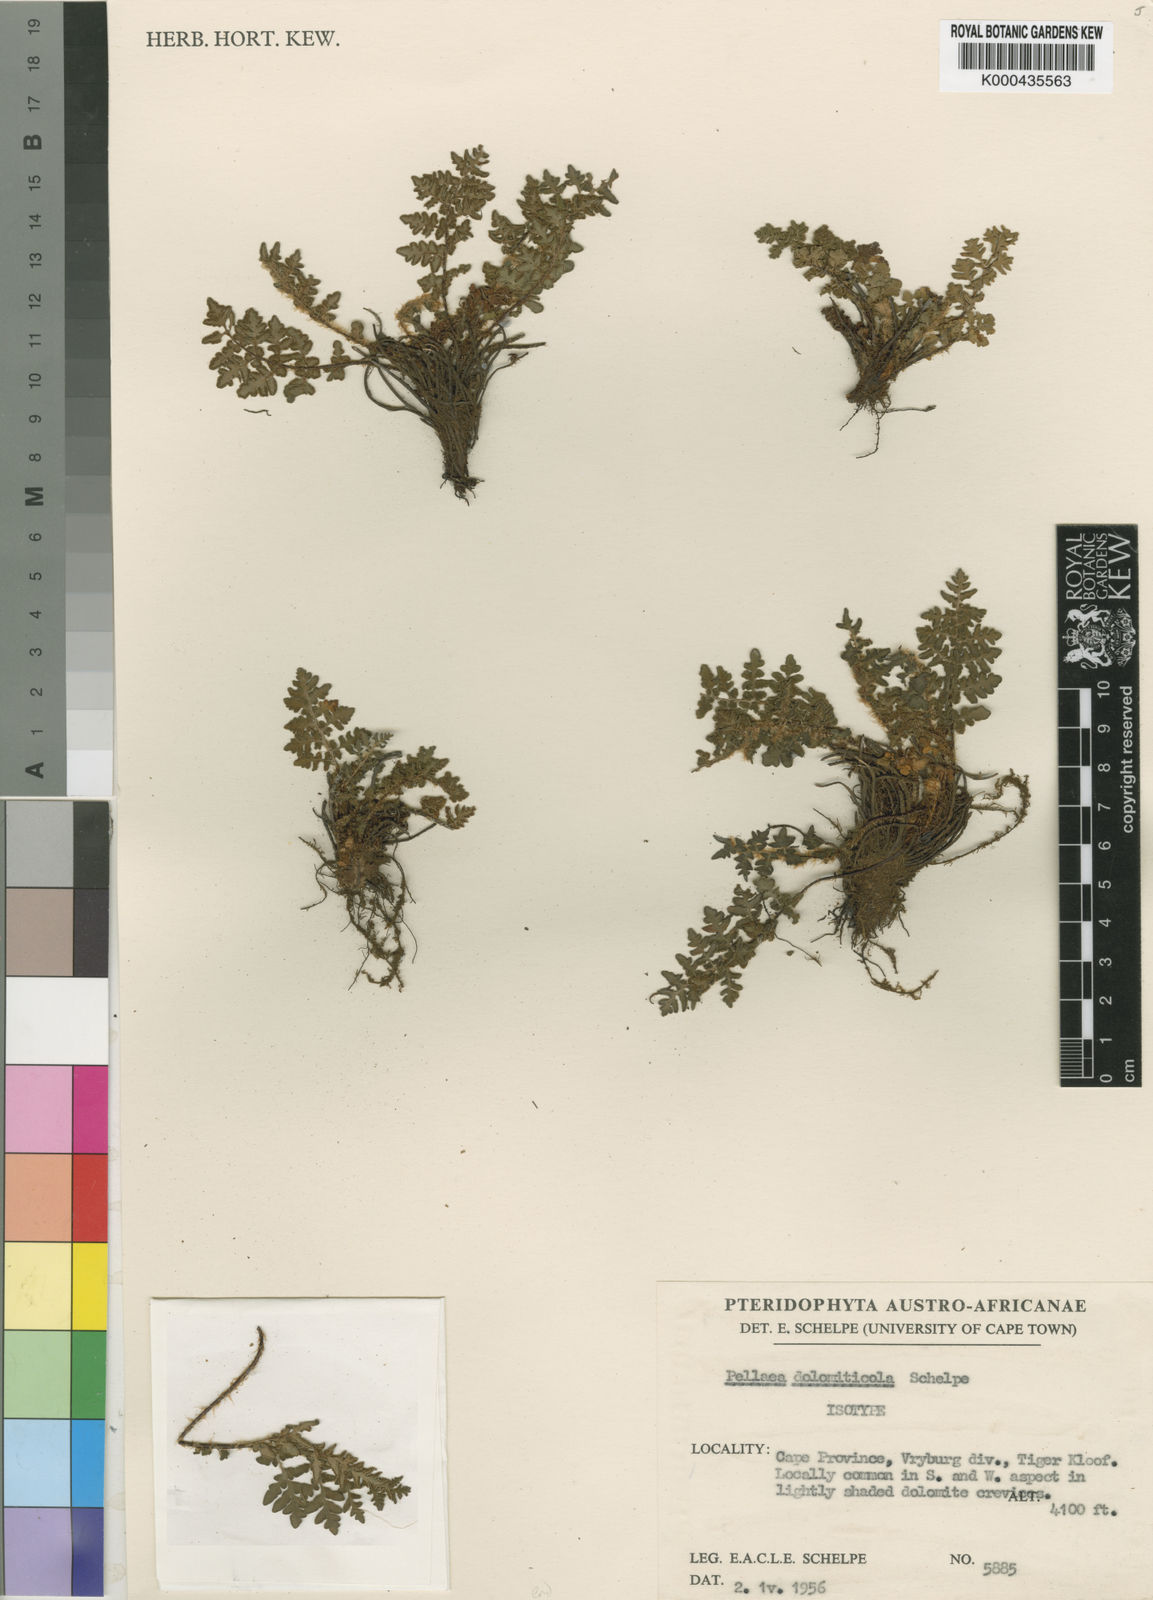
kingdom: Plantae
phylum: Tracheophyta
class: Polypodiopsida
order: Polypodiales
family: Pteridaceae
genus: Cheilanthes
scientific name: Cheilanthes dolomiticola
